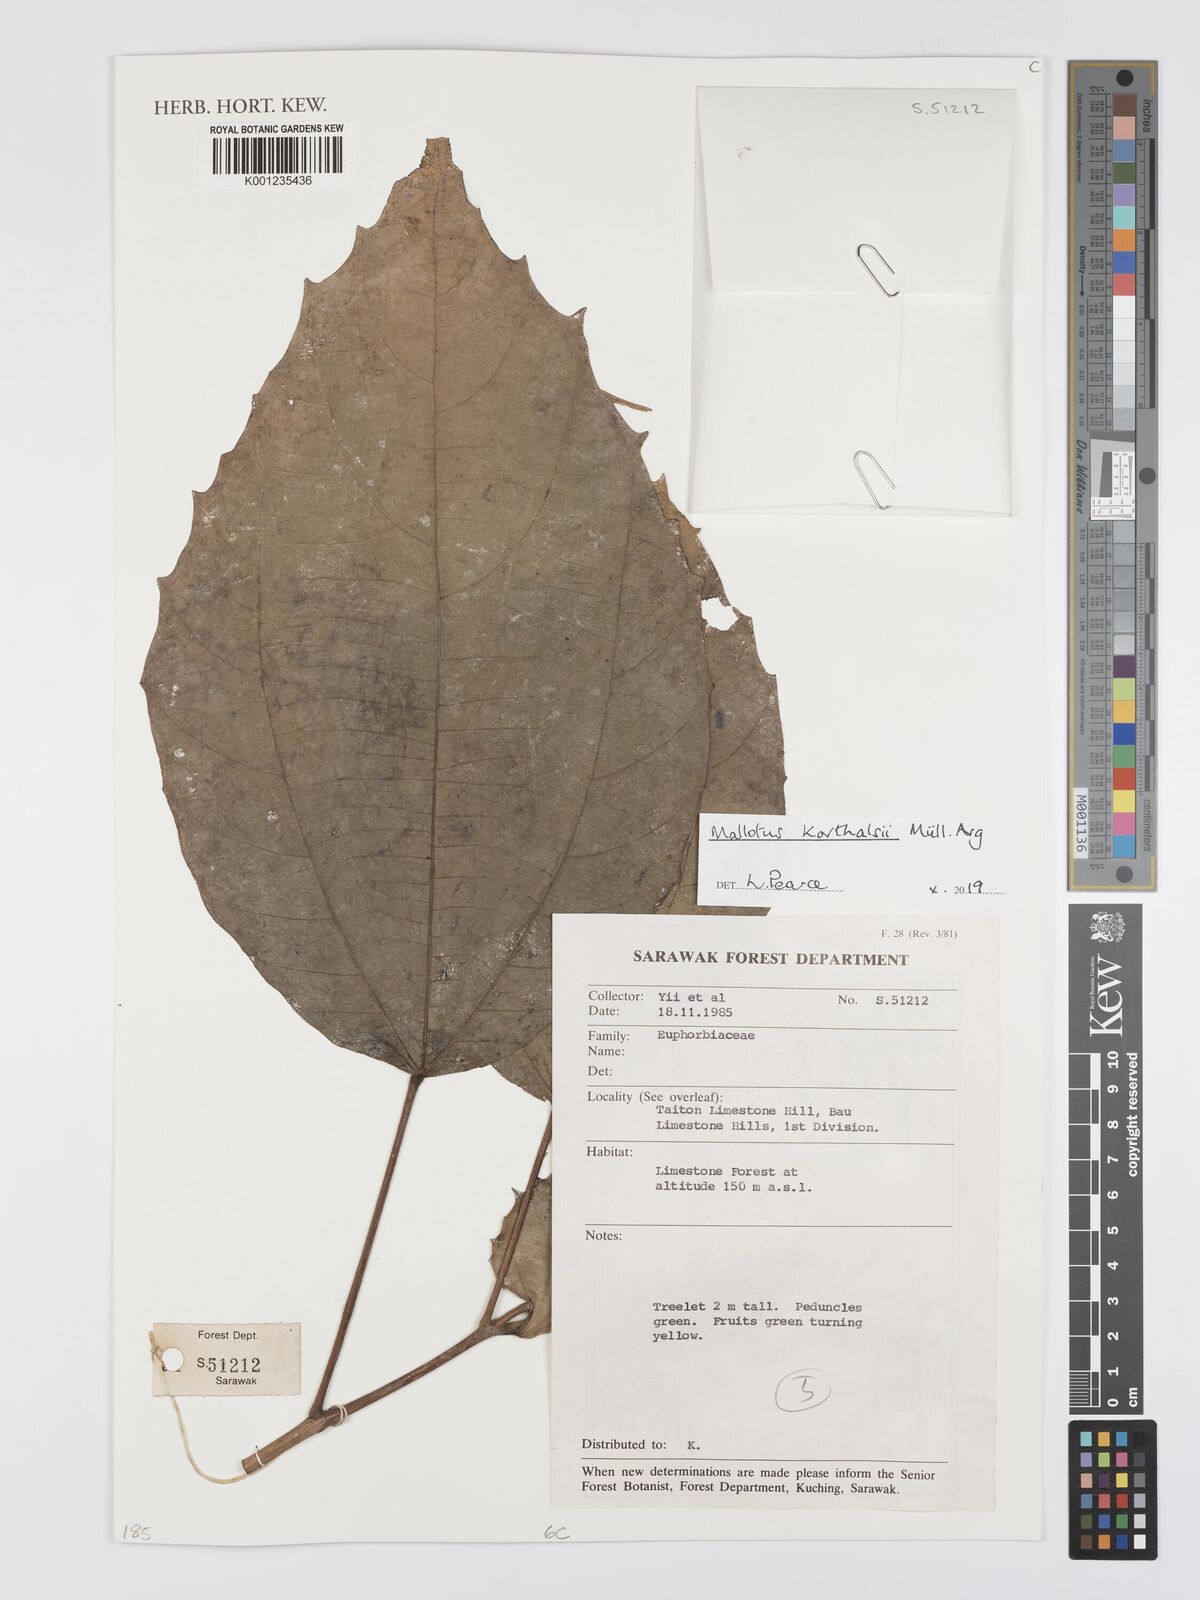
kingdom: Plantae
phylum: Tracheophyta
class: Magnoliopsida
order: Malpighiales
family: Euphorbiaceae
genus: Mallotus
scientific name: Mallotus korthalsii
